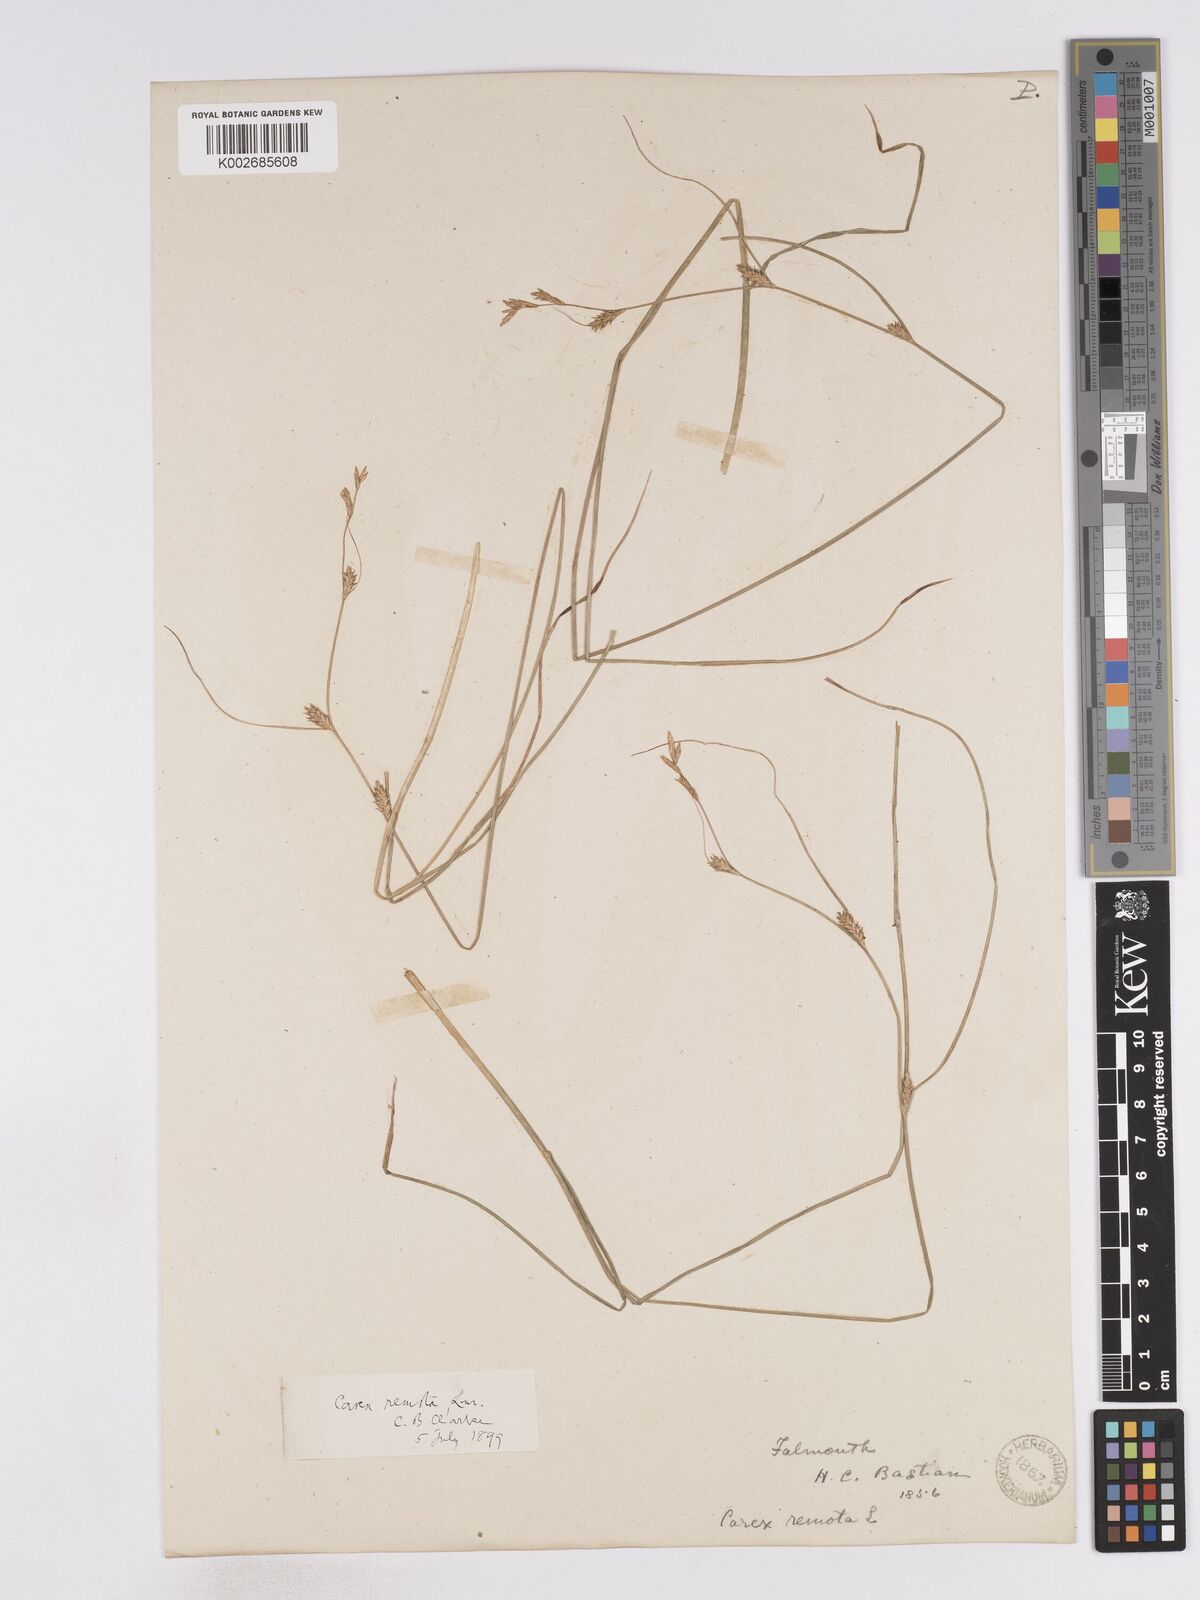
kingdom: Plantae
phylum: Tracheophyta
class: Liliopsida
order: Poales
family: Cyperaceae
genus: Carex
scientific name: Carex remota
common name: Remote sedge
